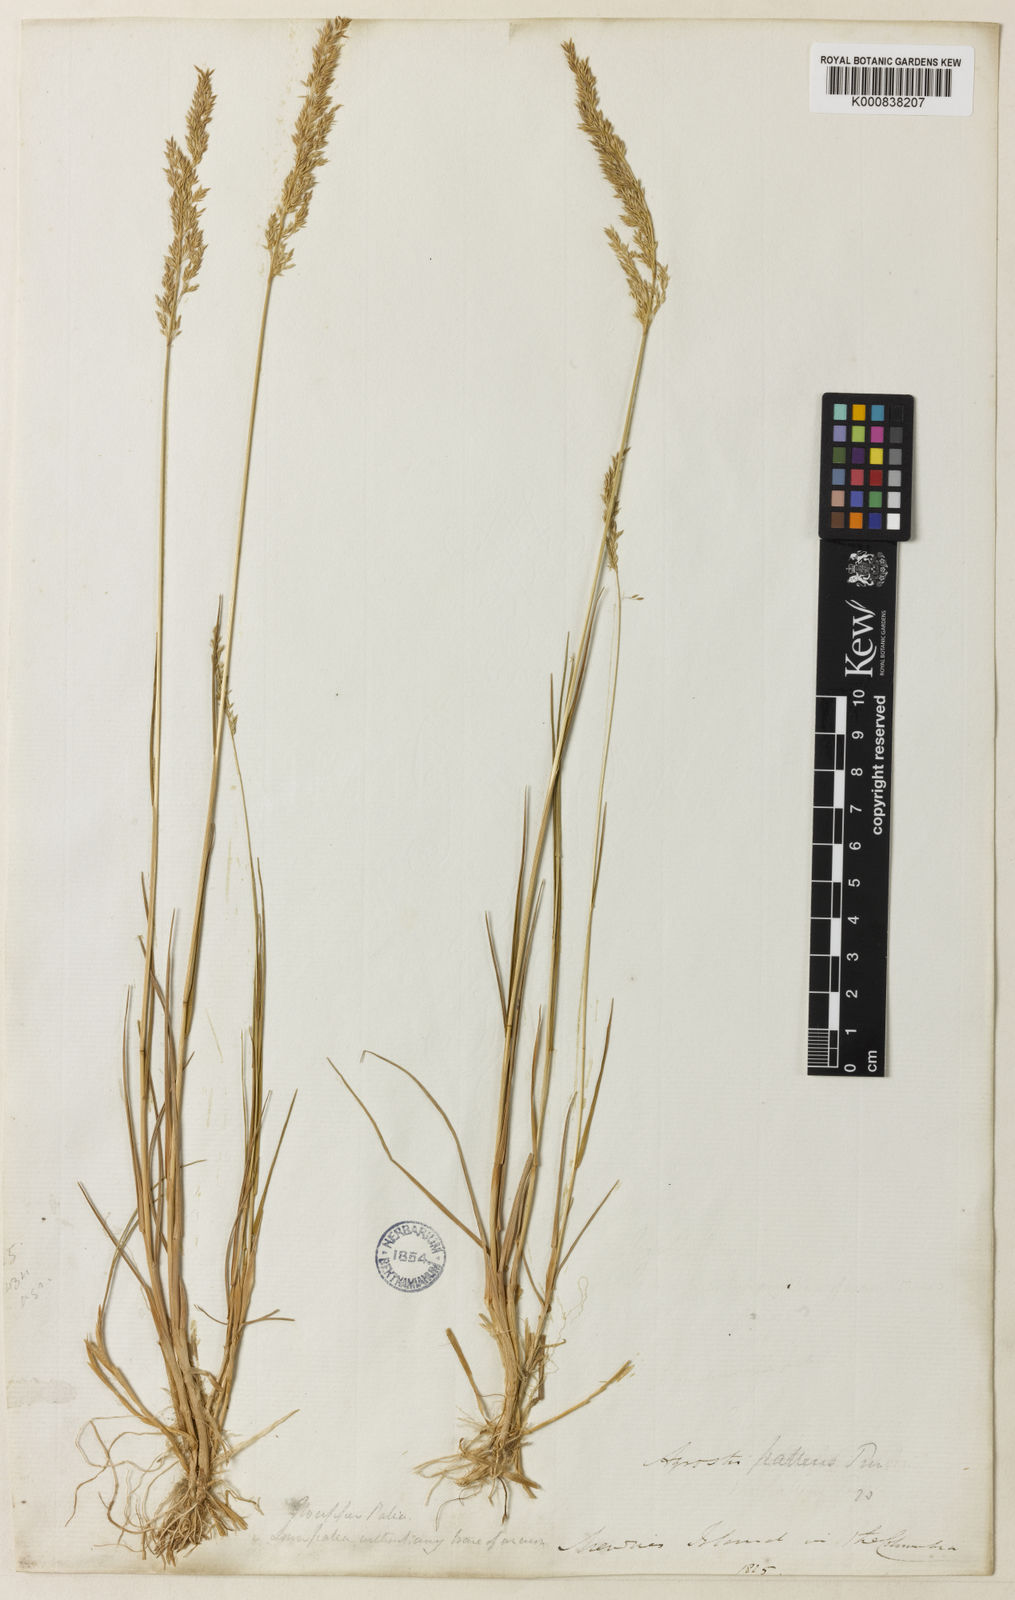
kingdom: Plantae
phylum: Tracheophyta
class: Liliopsida
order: Poales
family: Poaceae
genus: Agrostis
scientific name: Agrostis exarata
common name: Spike bent
